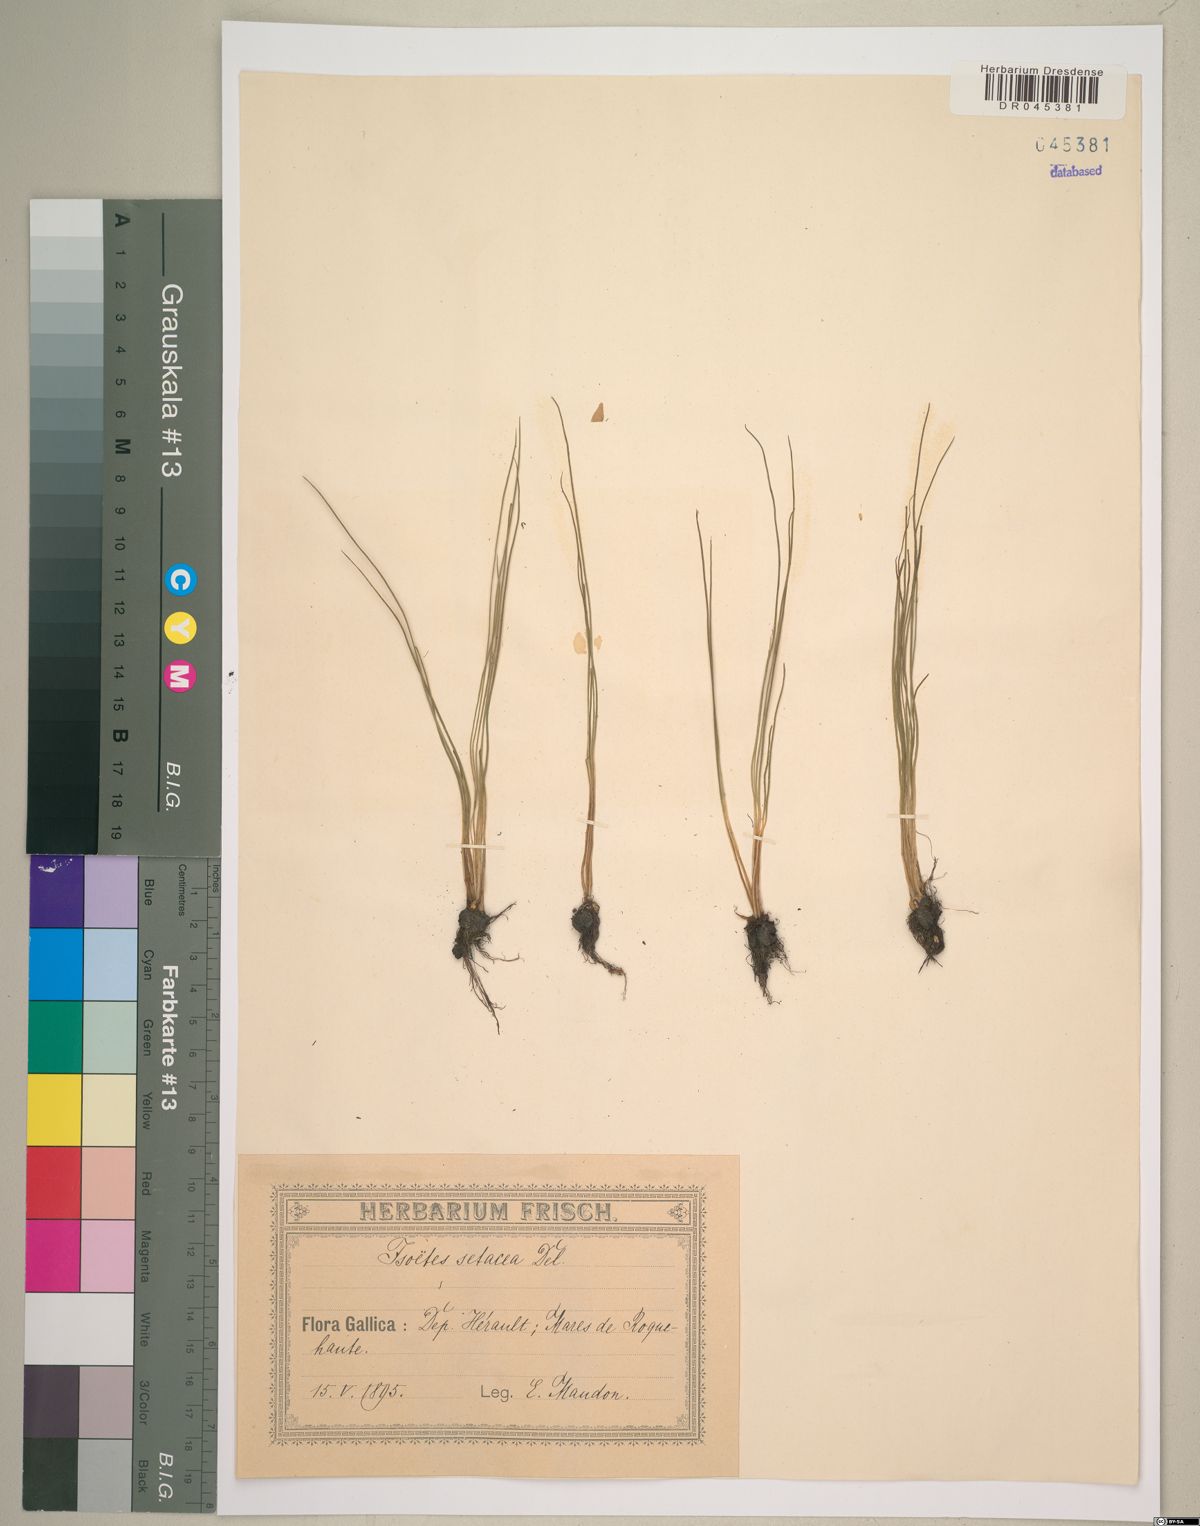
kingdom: Plantae
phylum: Tracheophyta
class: Lycopodiopsida
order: Isoetales
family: Isoetaceae
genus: Isoetes
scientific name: Isoetes lacustris
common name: Common quillwort
